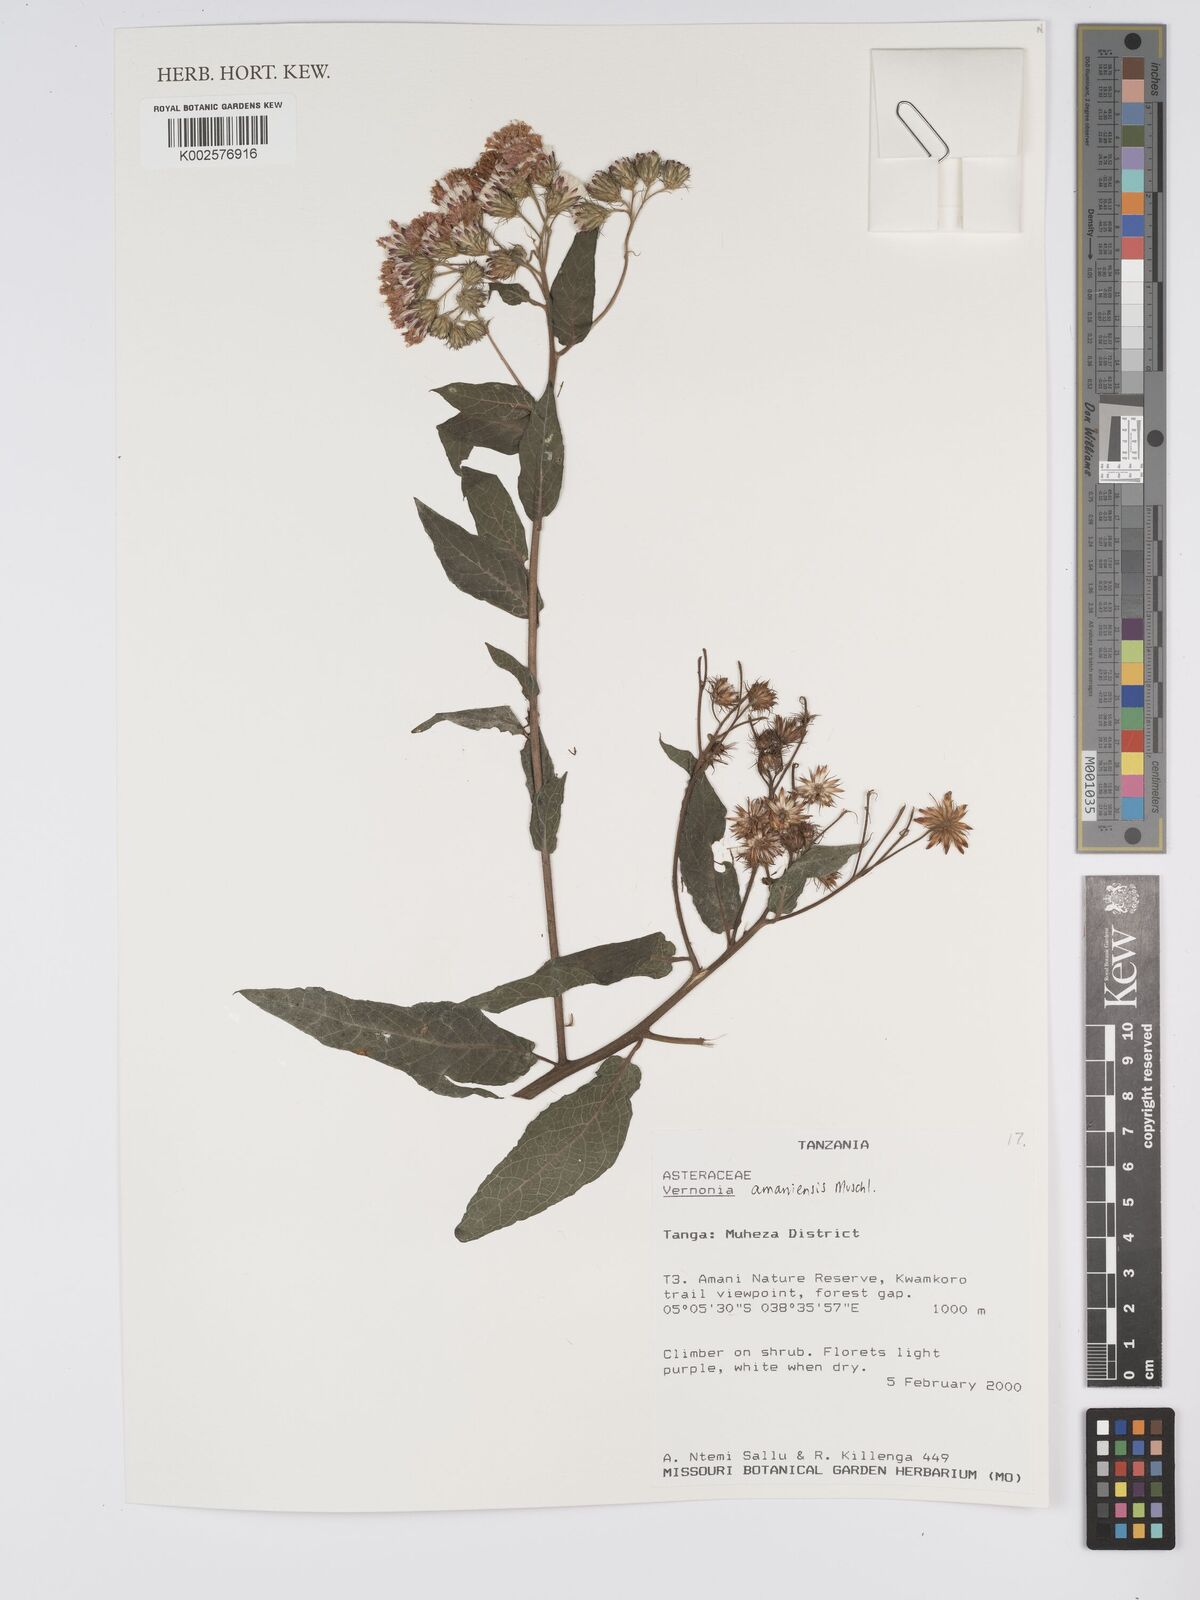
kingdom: Plantae
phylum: Tracheophyta
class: Magnoliopsida
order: Asterales
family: Asteraceae
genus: Jeffreycia
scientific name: Jeffreycia amaniensis
